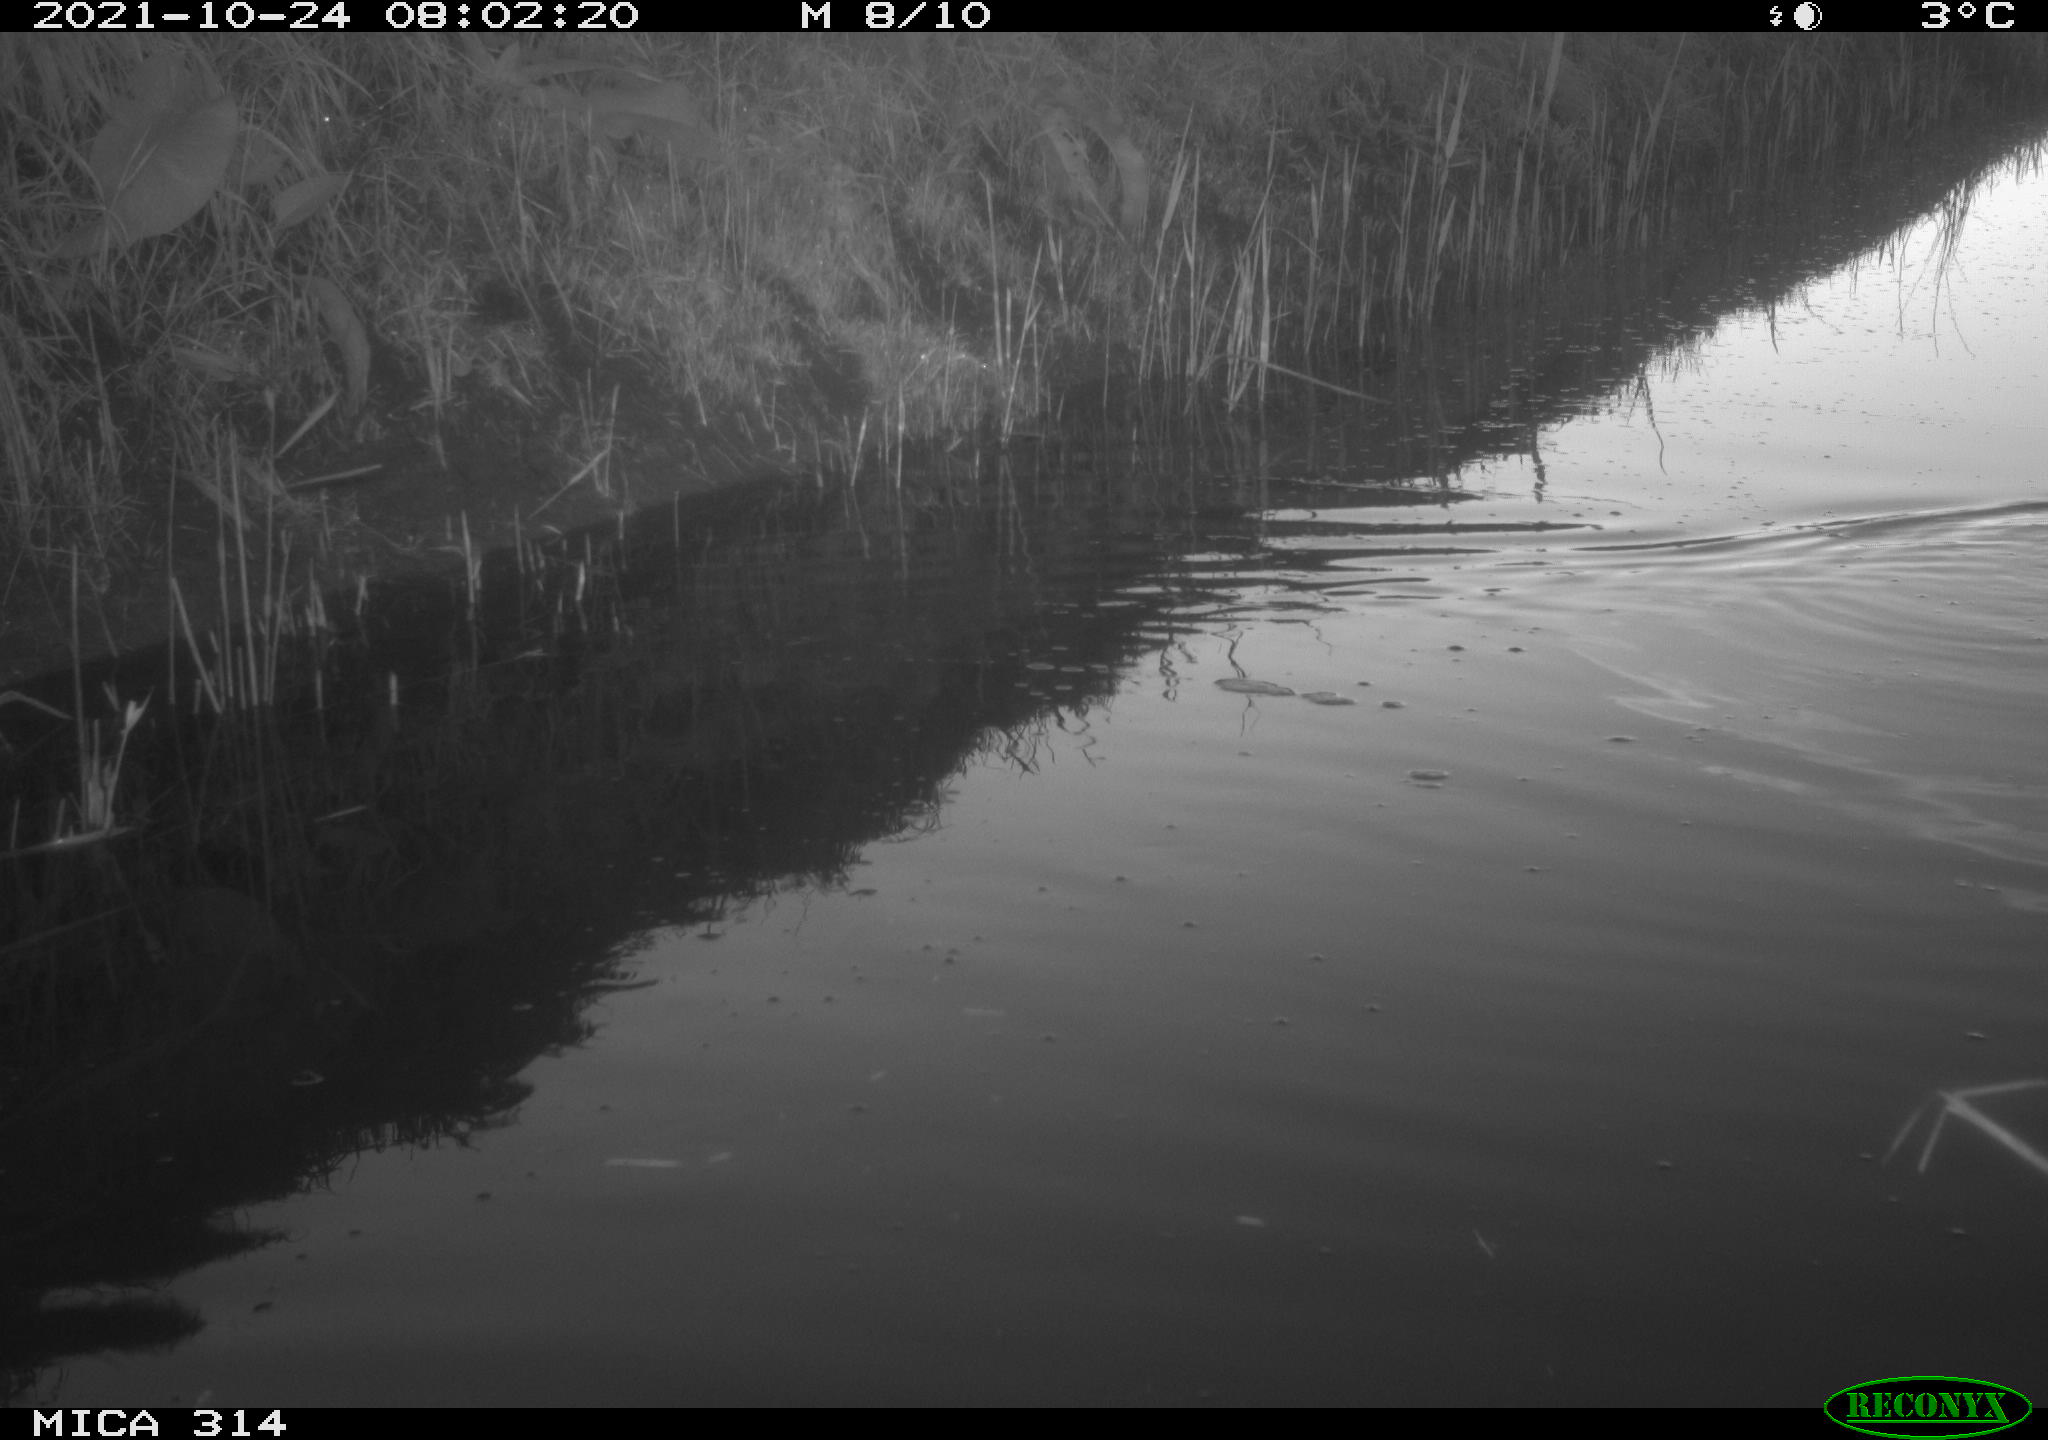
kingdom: Animalia
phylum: Chordata
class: Aves
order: Gruiformes
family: Rallidae
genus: Gallinula
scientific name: Gallinula chloropus
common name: Common moorhen
